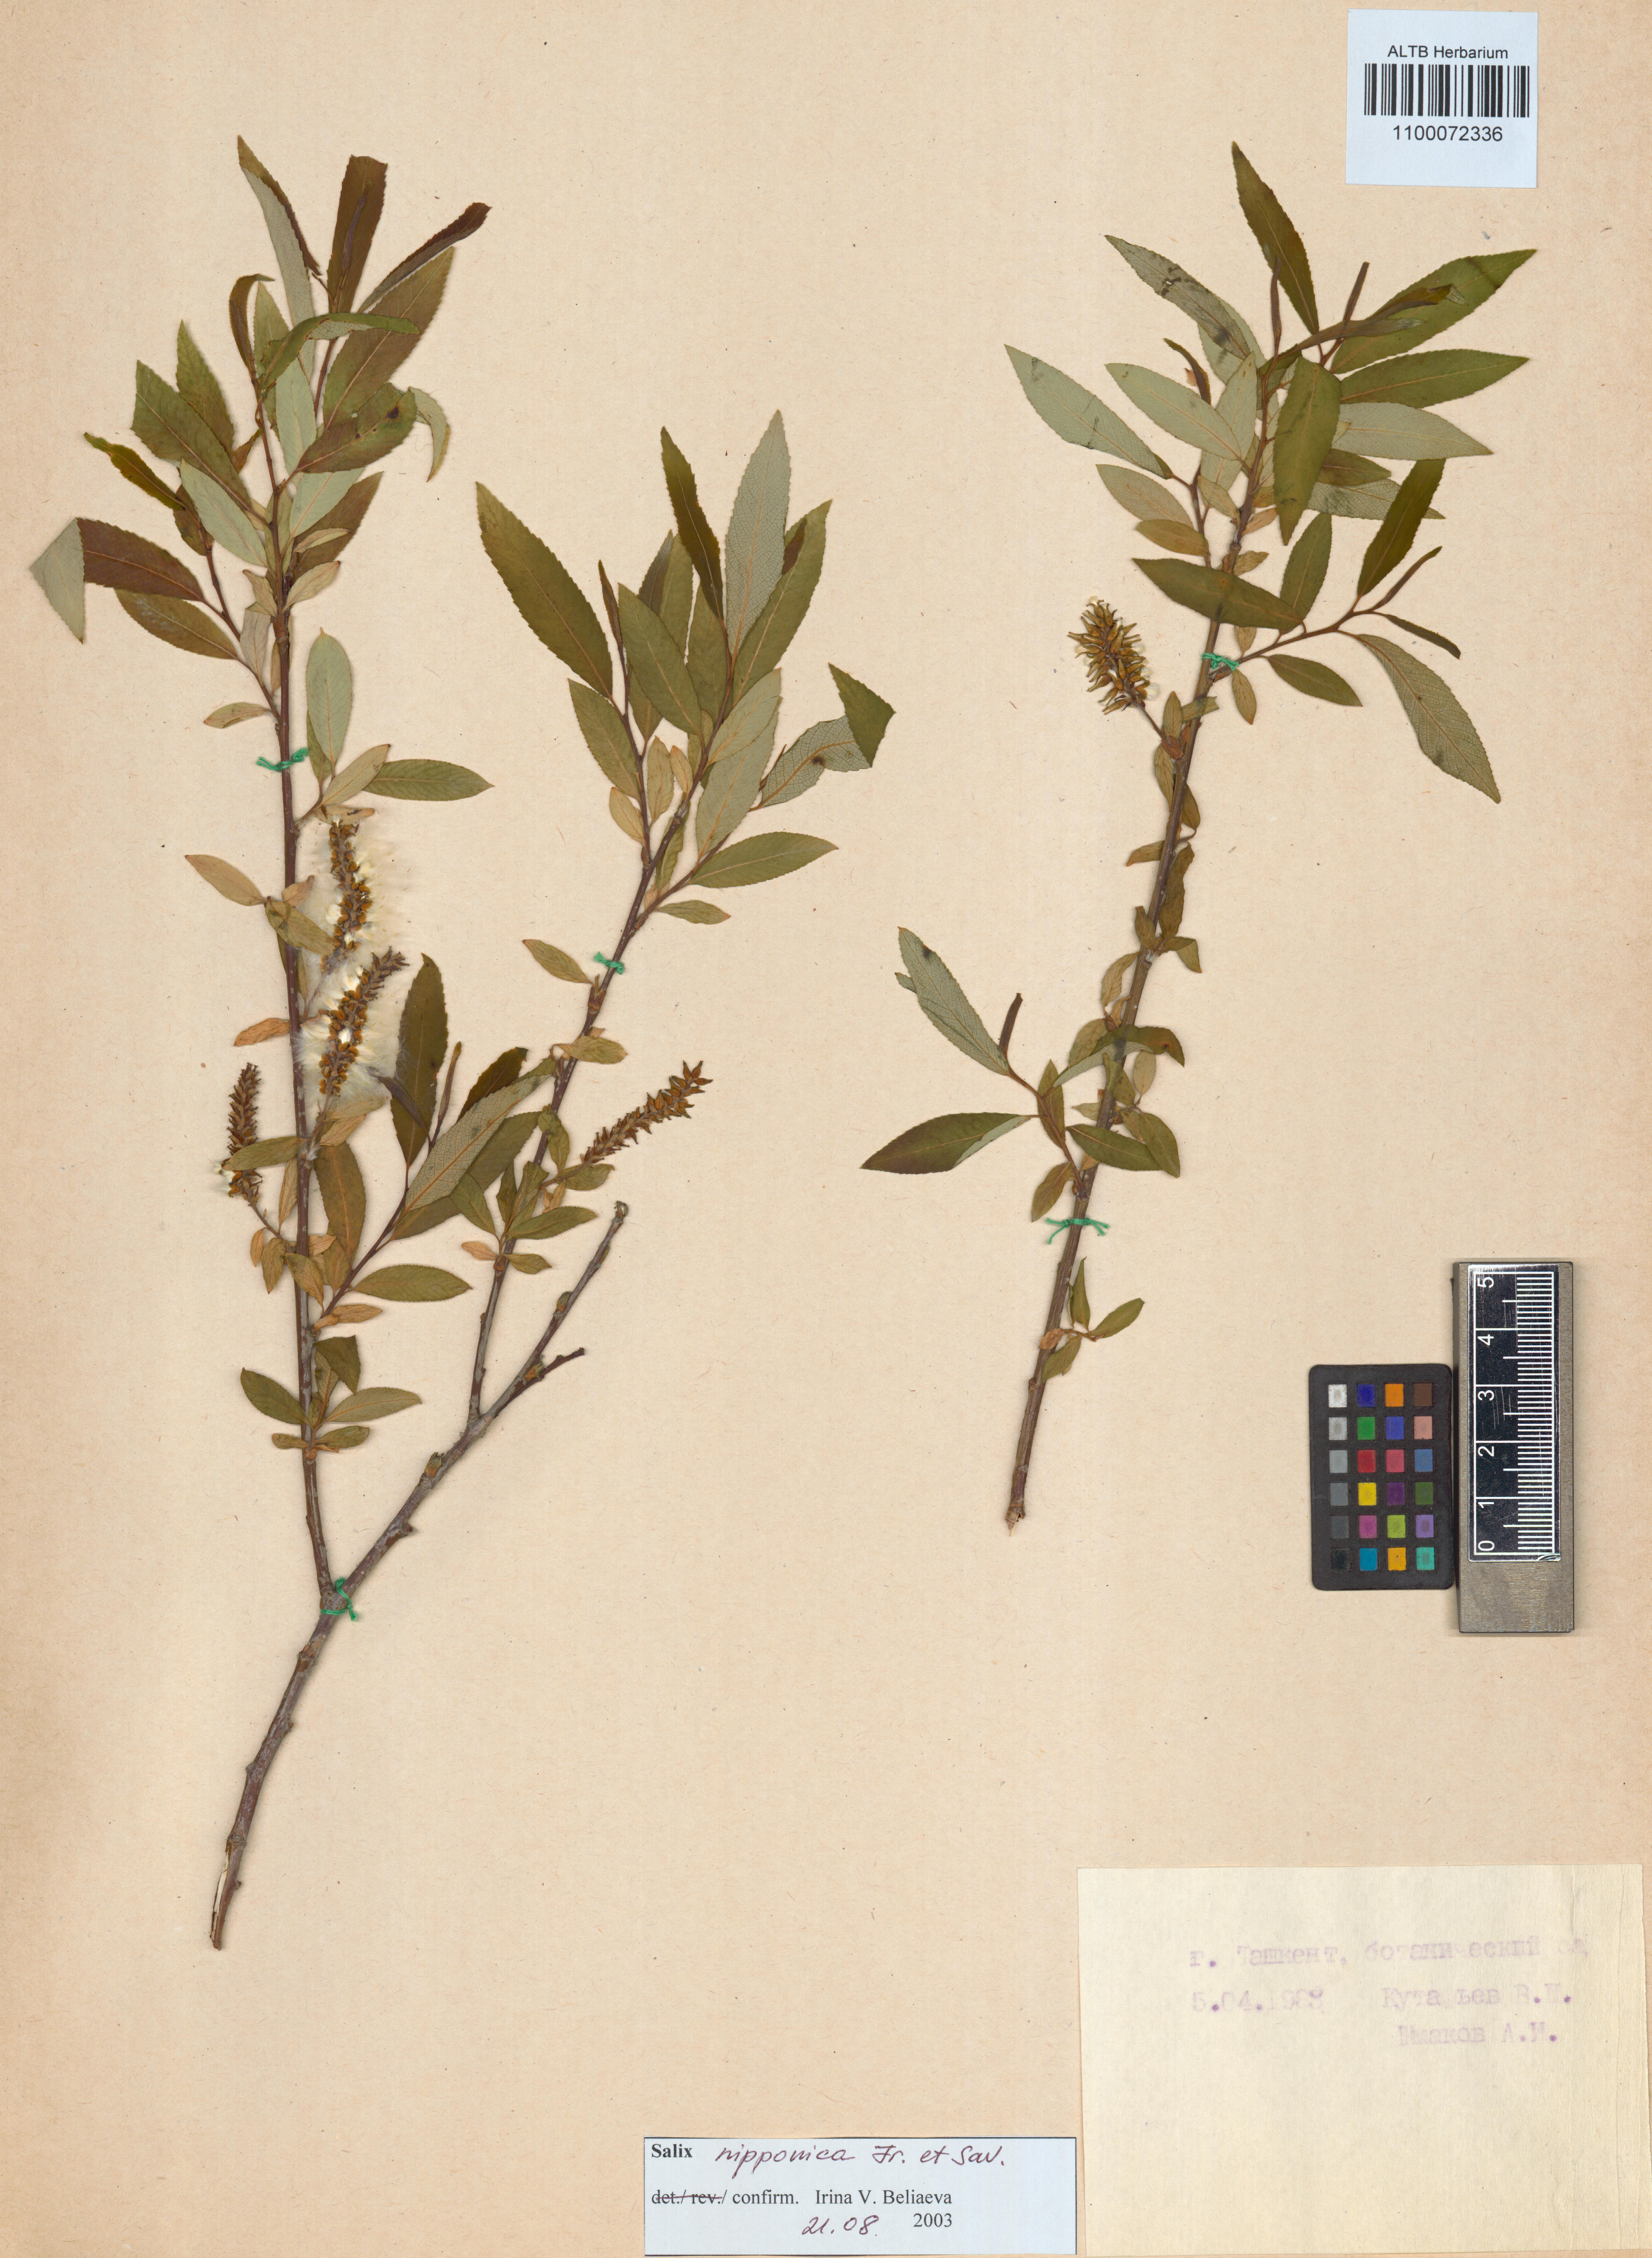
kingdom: Plantae
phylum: Tracheophyta
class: Magnoliopsida
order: Malpighiales
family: Salicaceae
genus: Salix
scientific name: Salix subfragilis
